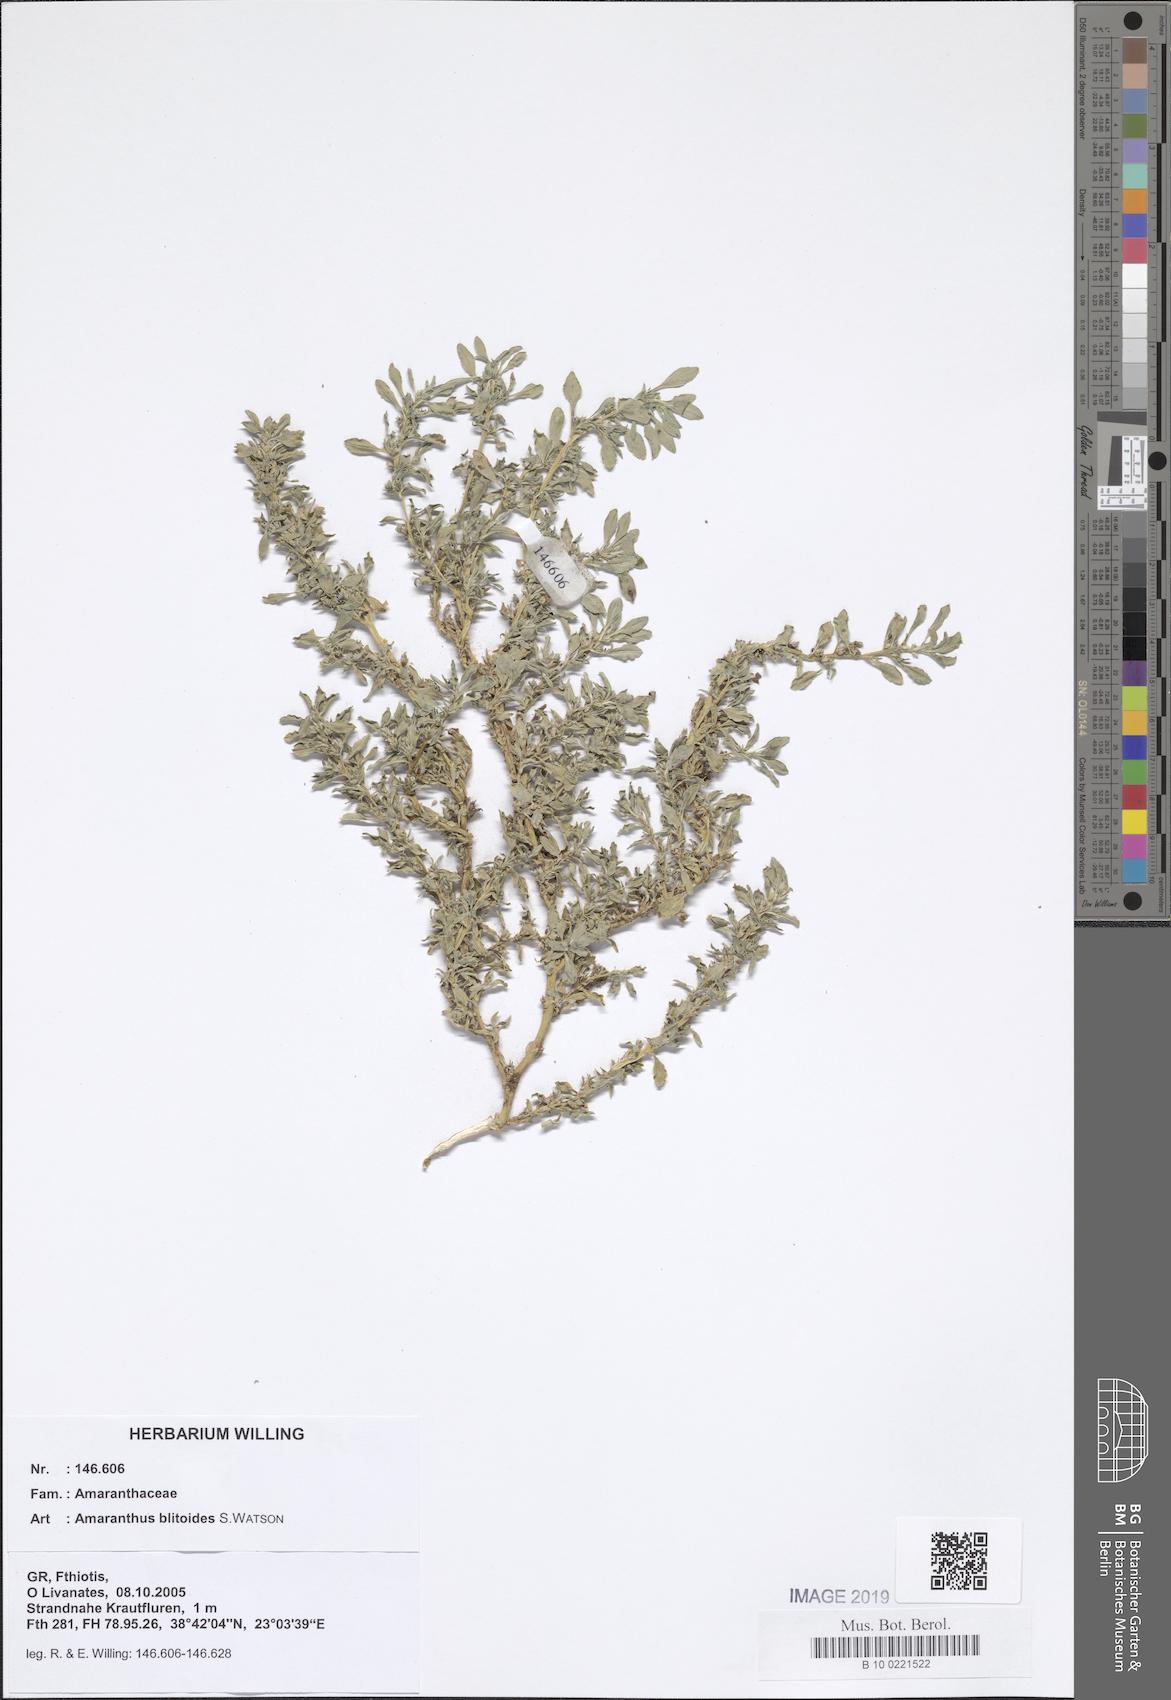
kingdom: Plantae
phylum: Tracheophyta
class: Magnoliopsida
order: Caryophyllales
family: Amaranthaceae
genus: Amaranthus
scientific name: Amaranthus blitoides
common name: Prostrate pigweed
